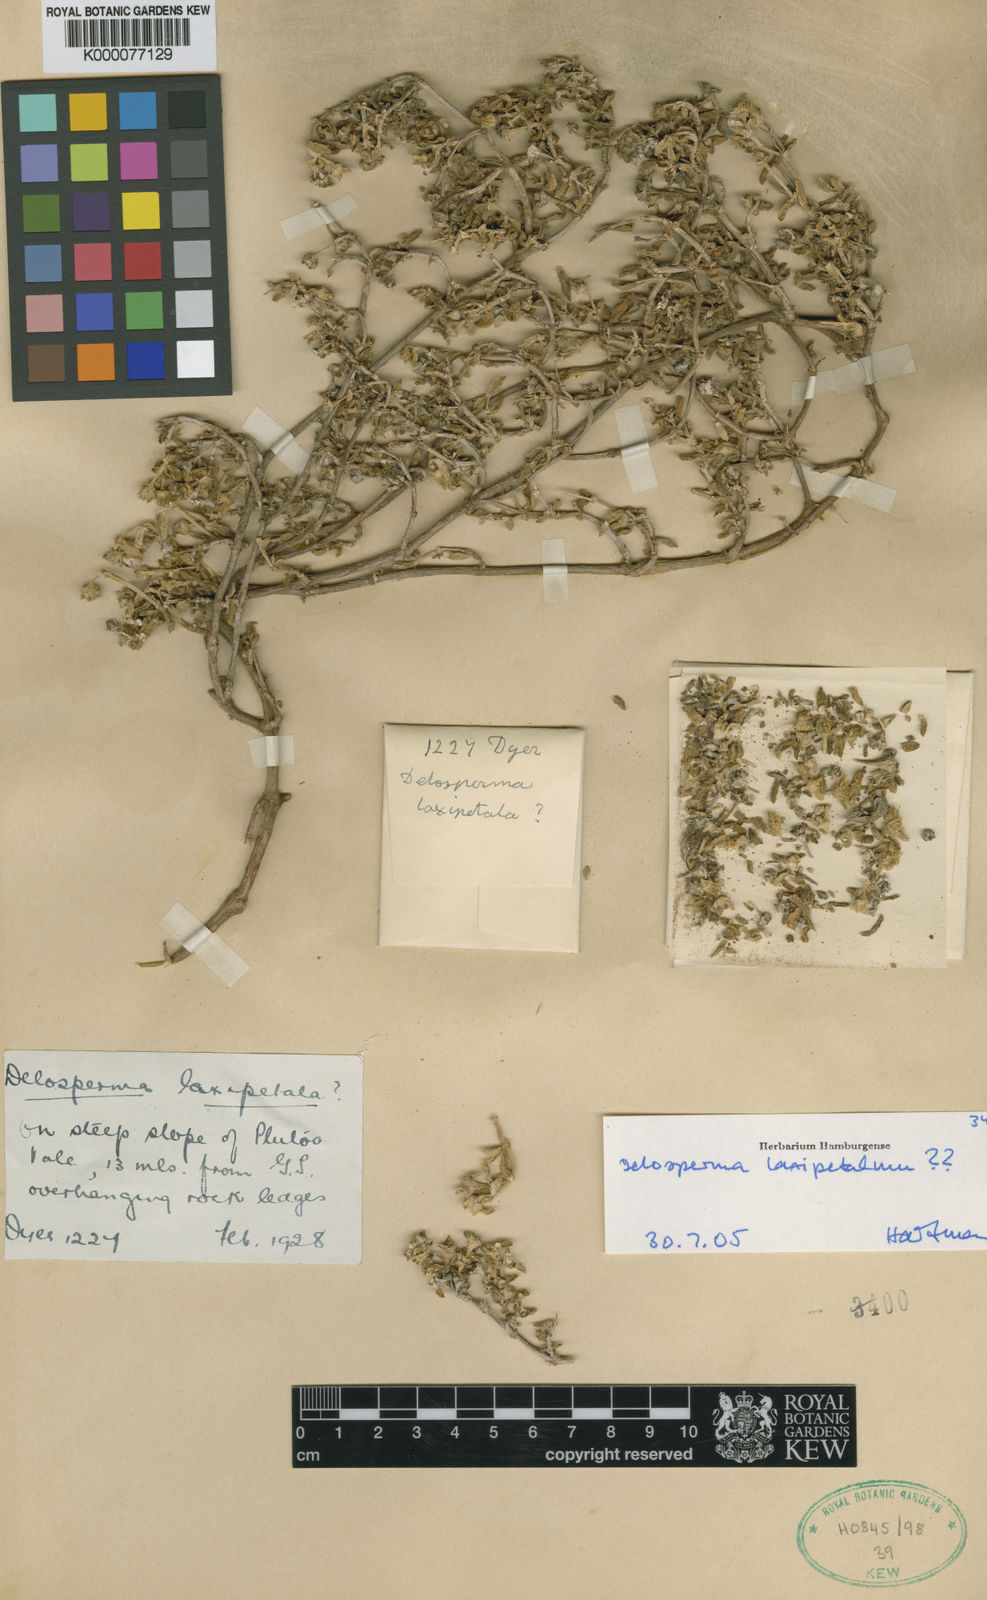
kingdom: Plantae
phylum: Tracheophyta
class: Magnoliopsida
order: Caryophyllales
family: Aizoaceae
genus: Delosperma
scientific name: Delosperma laxipetalum
